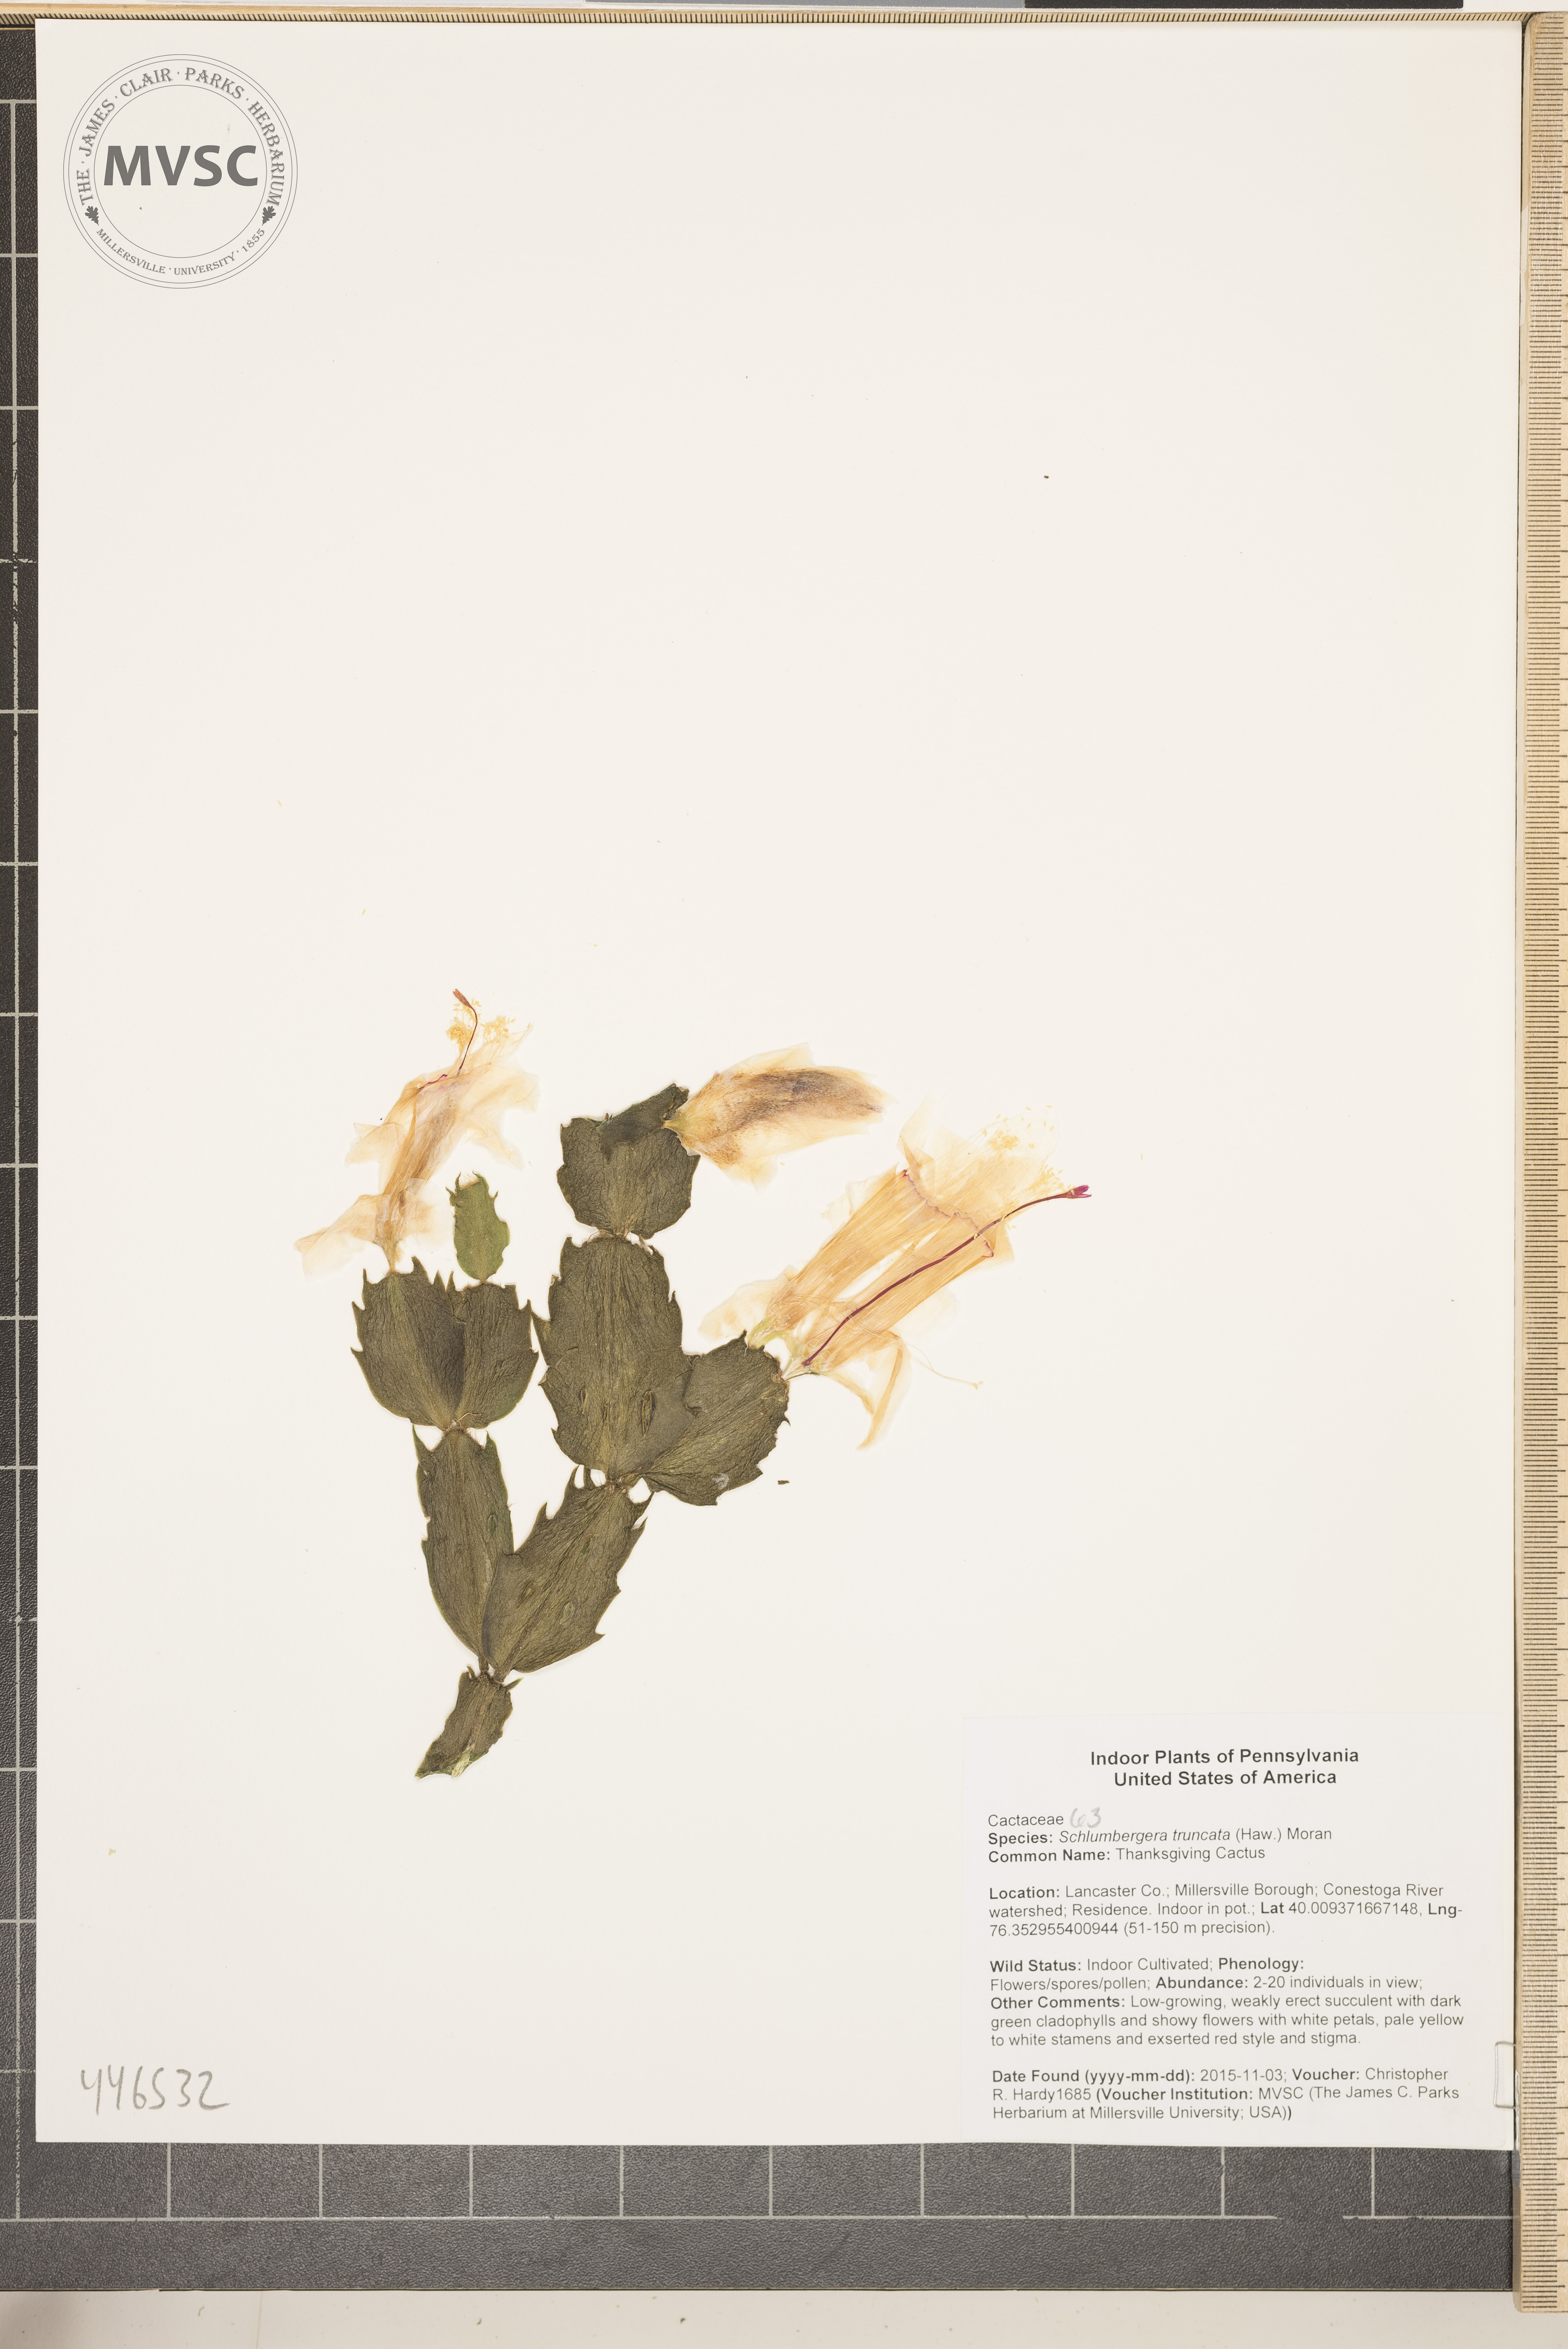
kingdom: Plantae
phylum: Tracheophyta
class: Magnoliopsida
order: Caryophyllales
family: Cactaceae
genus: Schlumbergera
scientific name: Schlumbergera truncata
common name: Thanksgiving Cactus
